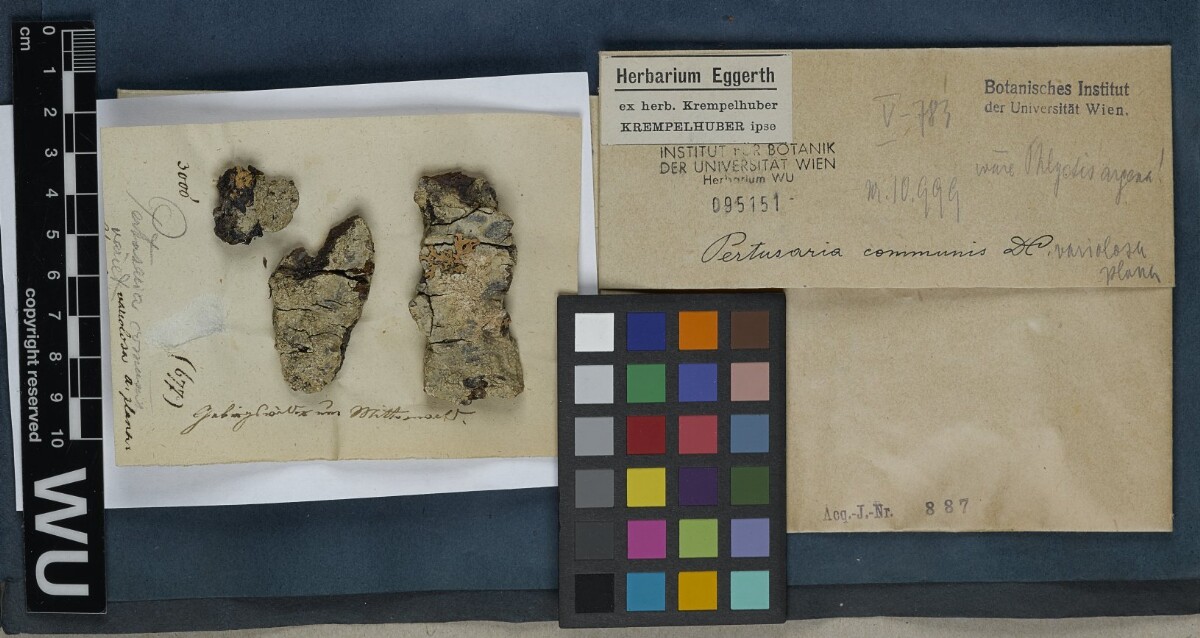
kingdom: Fungi
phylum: Ascomycota
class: Lecanoromycetes
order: Ostropales
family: Phlyctidaceae
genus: Phlyctis
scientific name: Phlyctis argena
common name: Whitewash lichen
